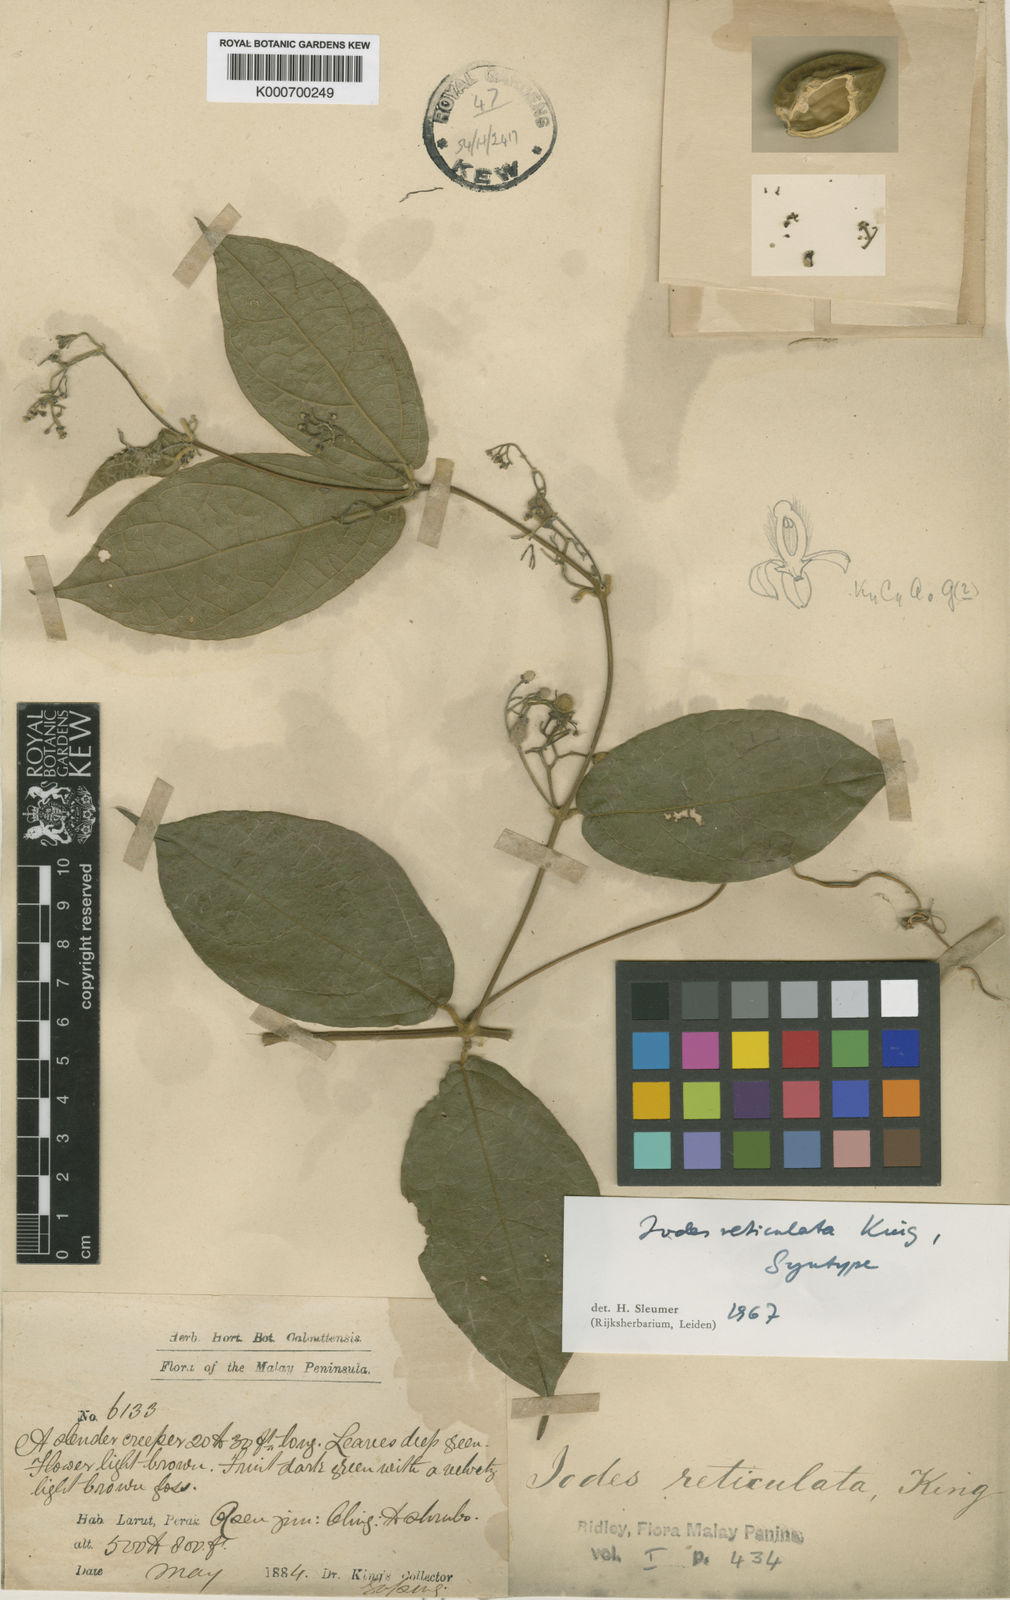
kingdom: Plantae
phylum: Tracheophyta
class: Magnoliopsida
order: Icacinales
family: Icacinaceae
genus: Iodes
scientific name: Iodes reticulata
